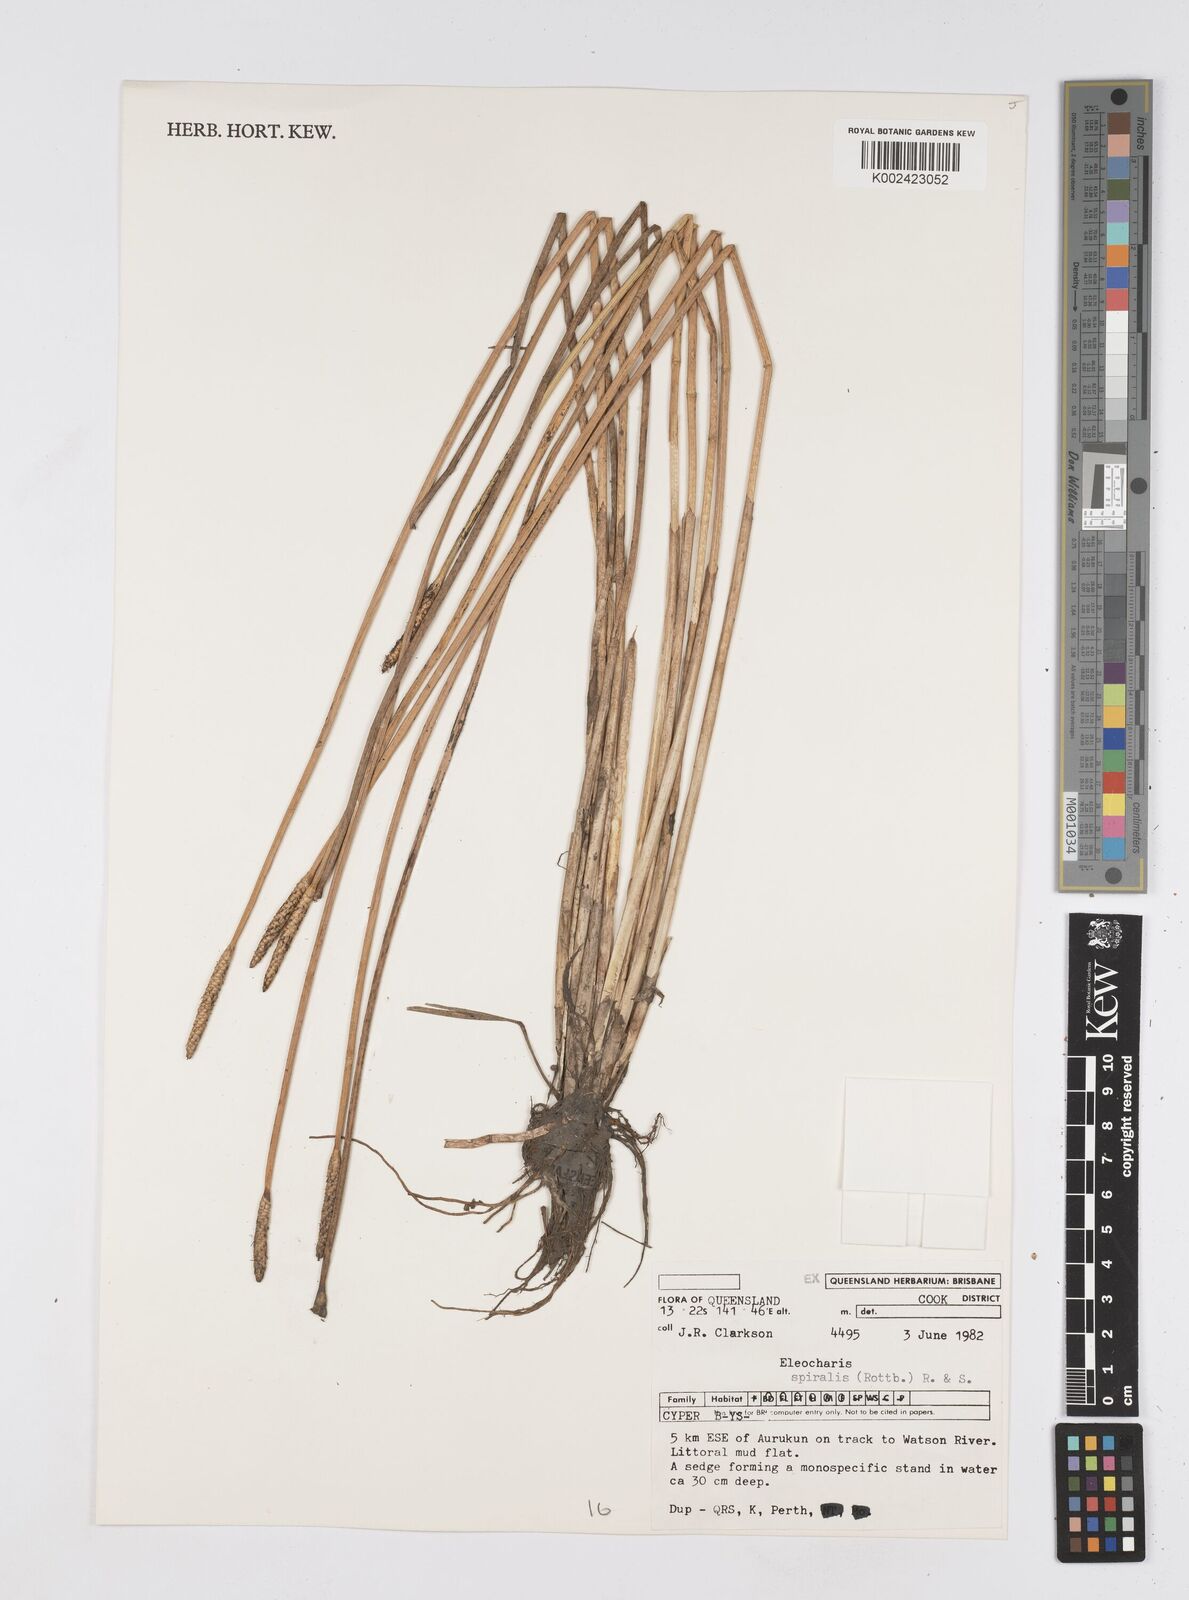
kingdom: Plantae
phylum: Tracheophyta
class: Liliopsida
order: Poales
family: Cyperaceae
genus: Eleocharis
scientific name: Eleocharis spiralis
